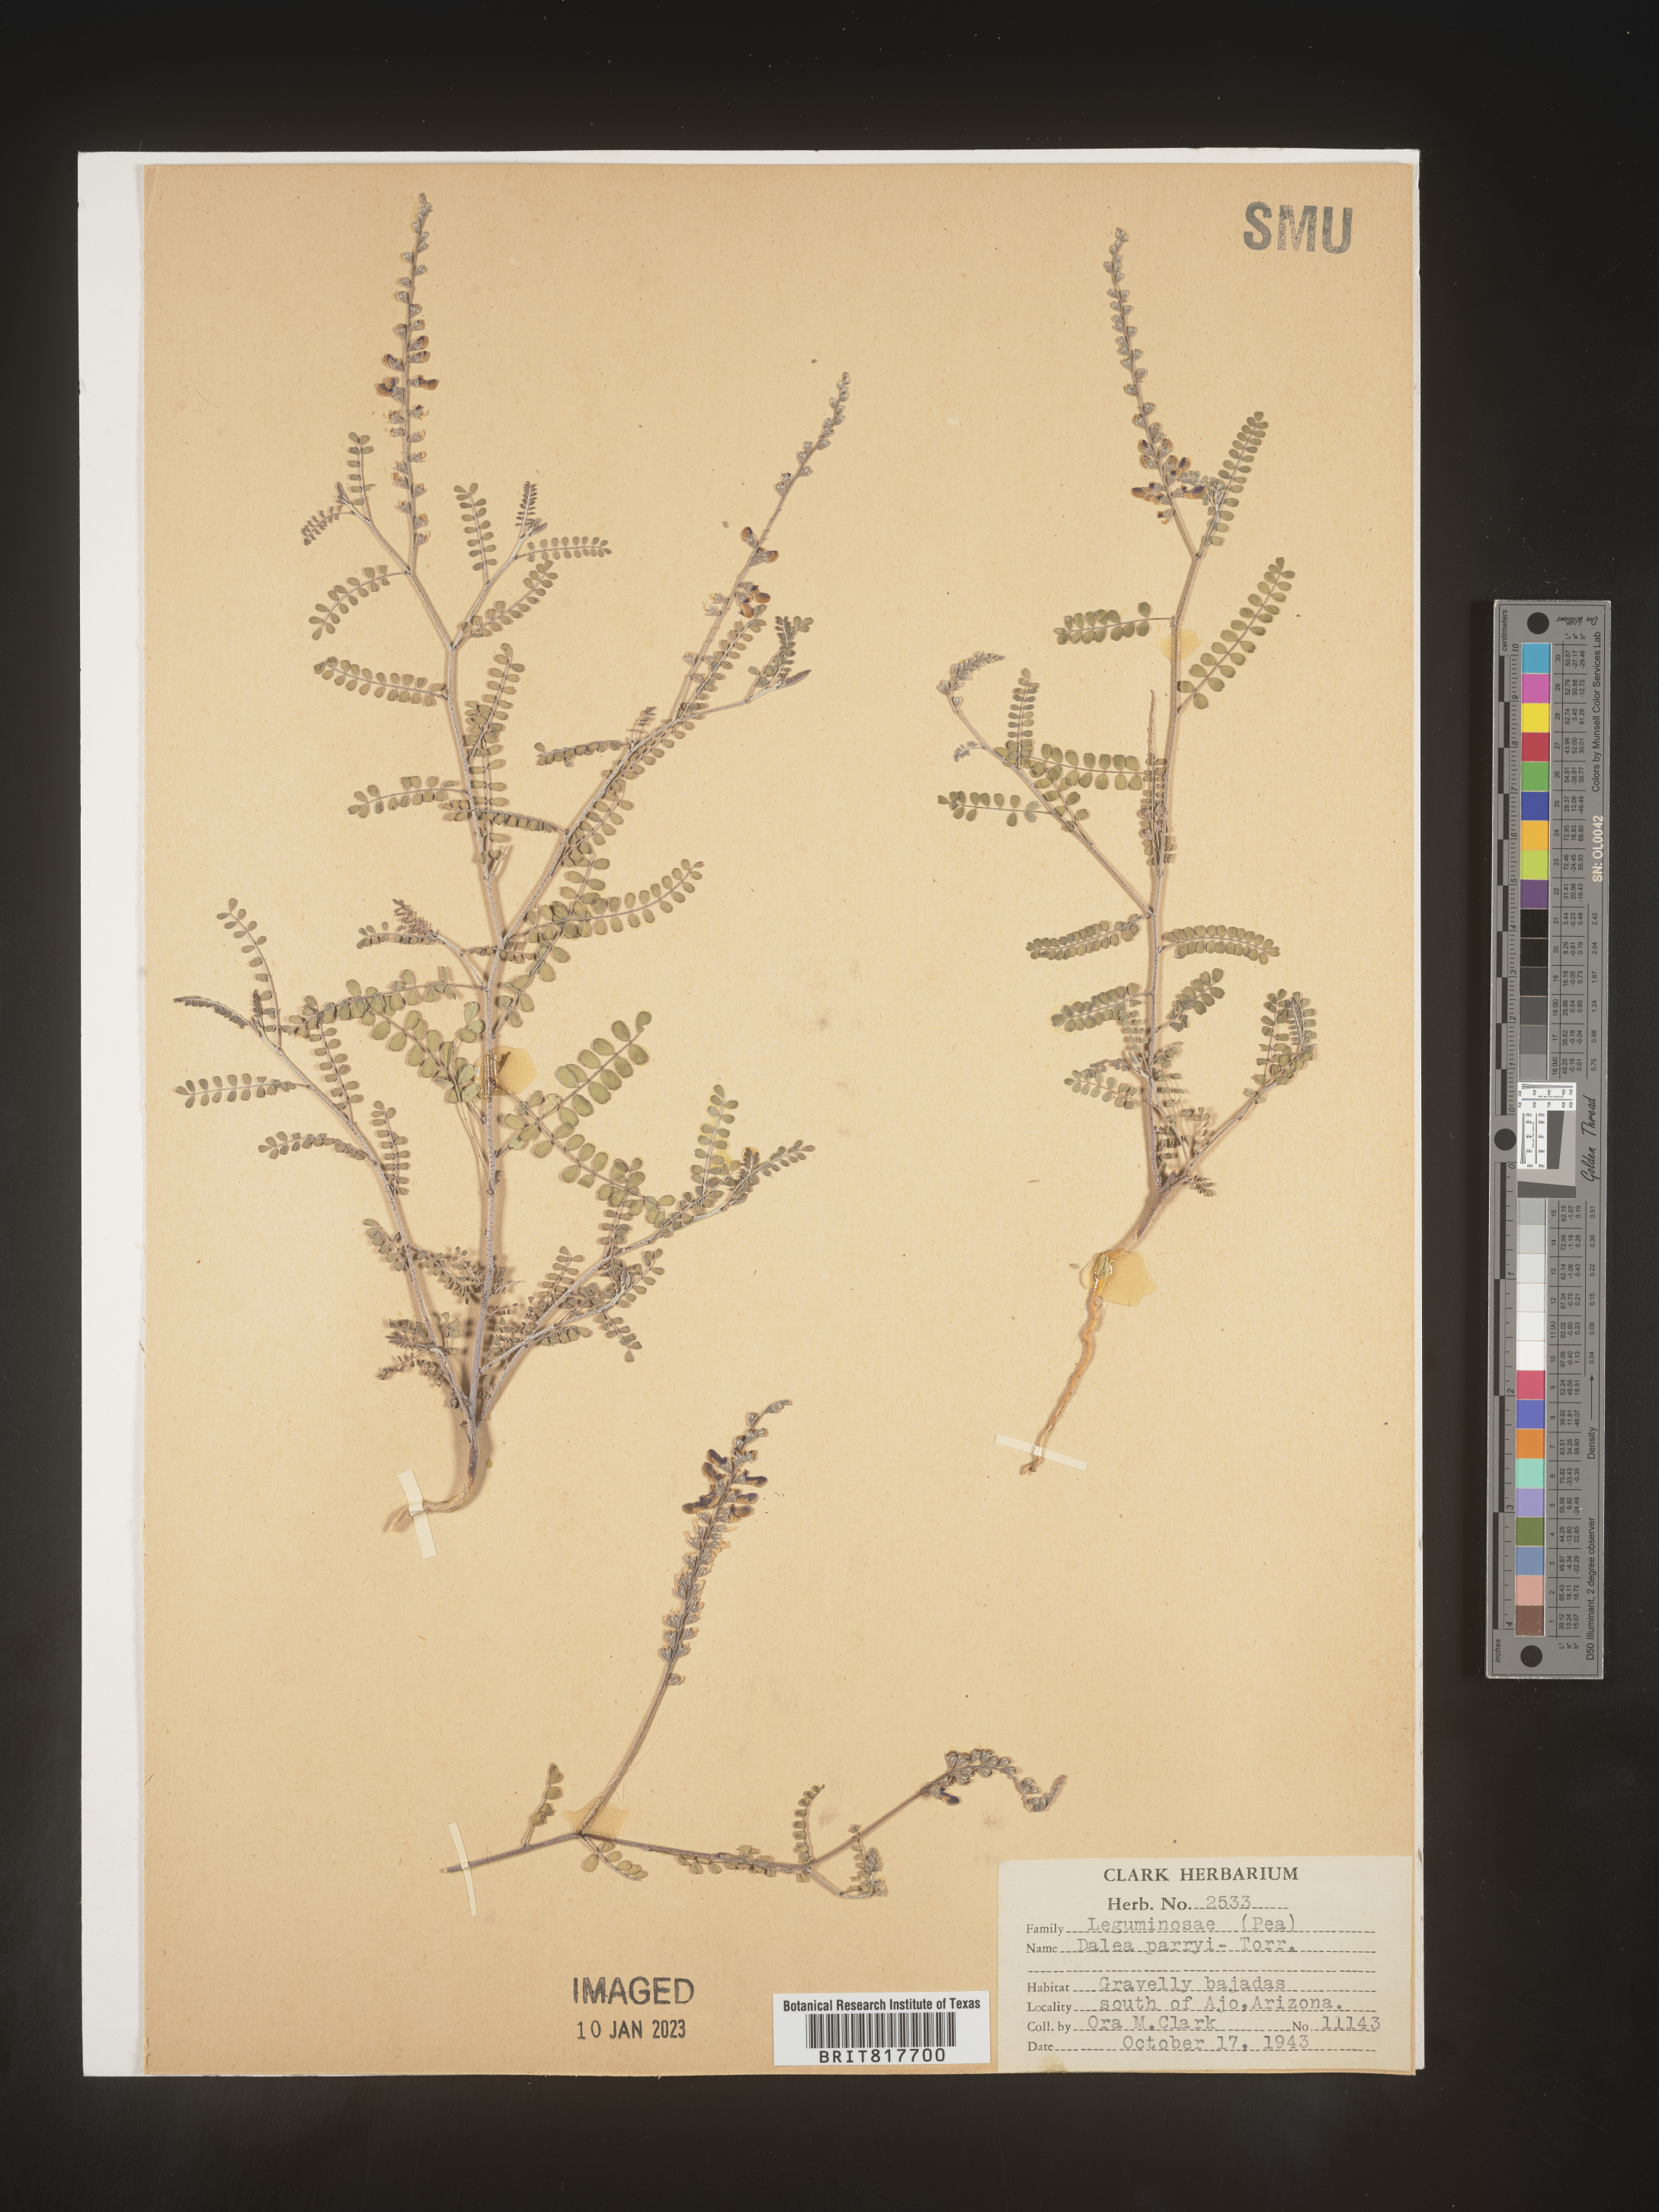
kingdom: Plantae
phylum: Tracheophyta
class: Magnoliopsida
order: Fabales
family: Fabaceae
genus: Marina
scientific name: Marina parryi
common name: Parry's marina
